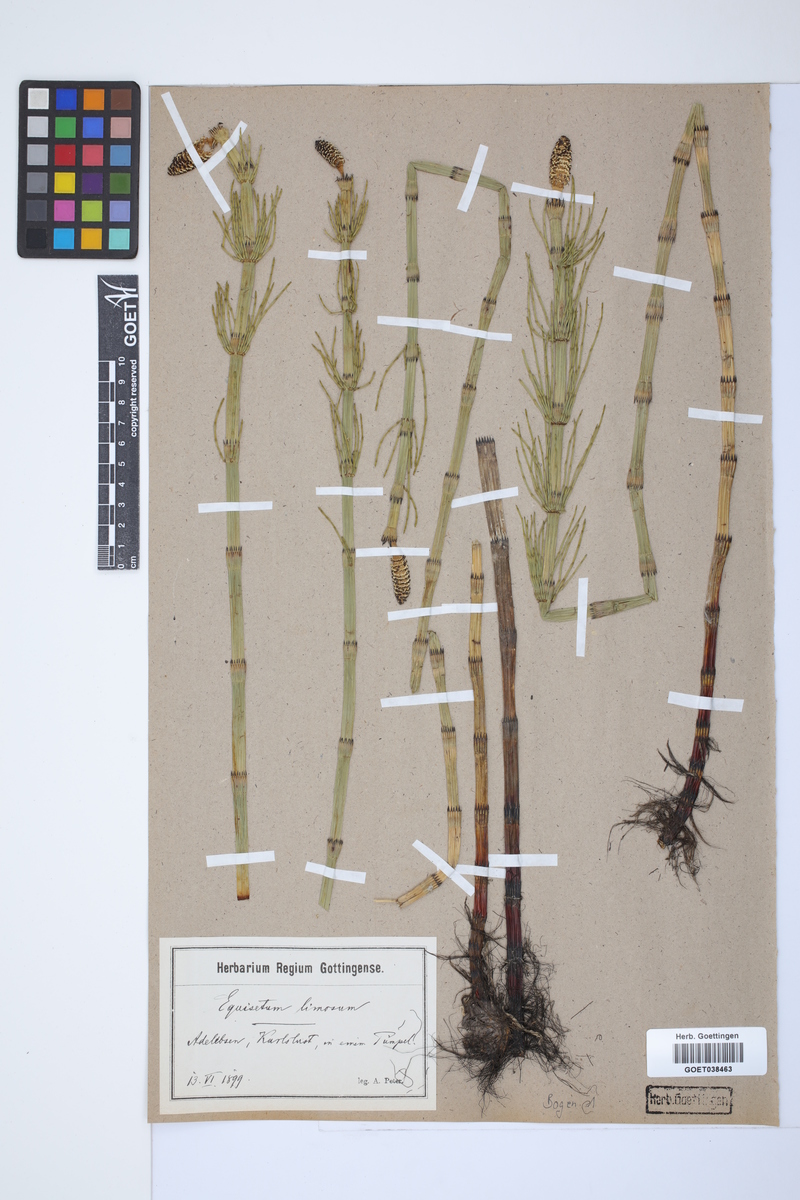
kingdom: Plantae
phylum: Tracheophyta
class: Polypodiopsida
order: Equisetales
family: Equisetaceae
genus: Equisetum
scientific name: Equisetum fluviatile
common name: Water horsetail
